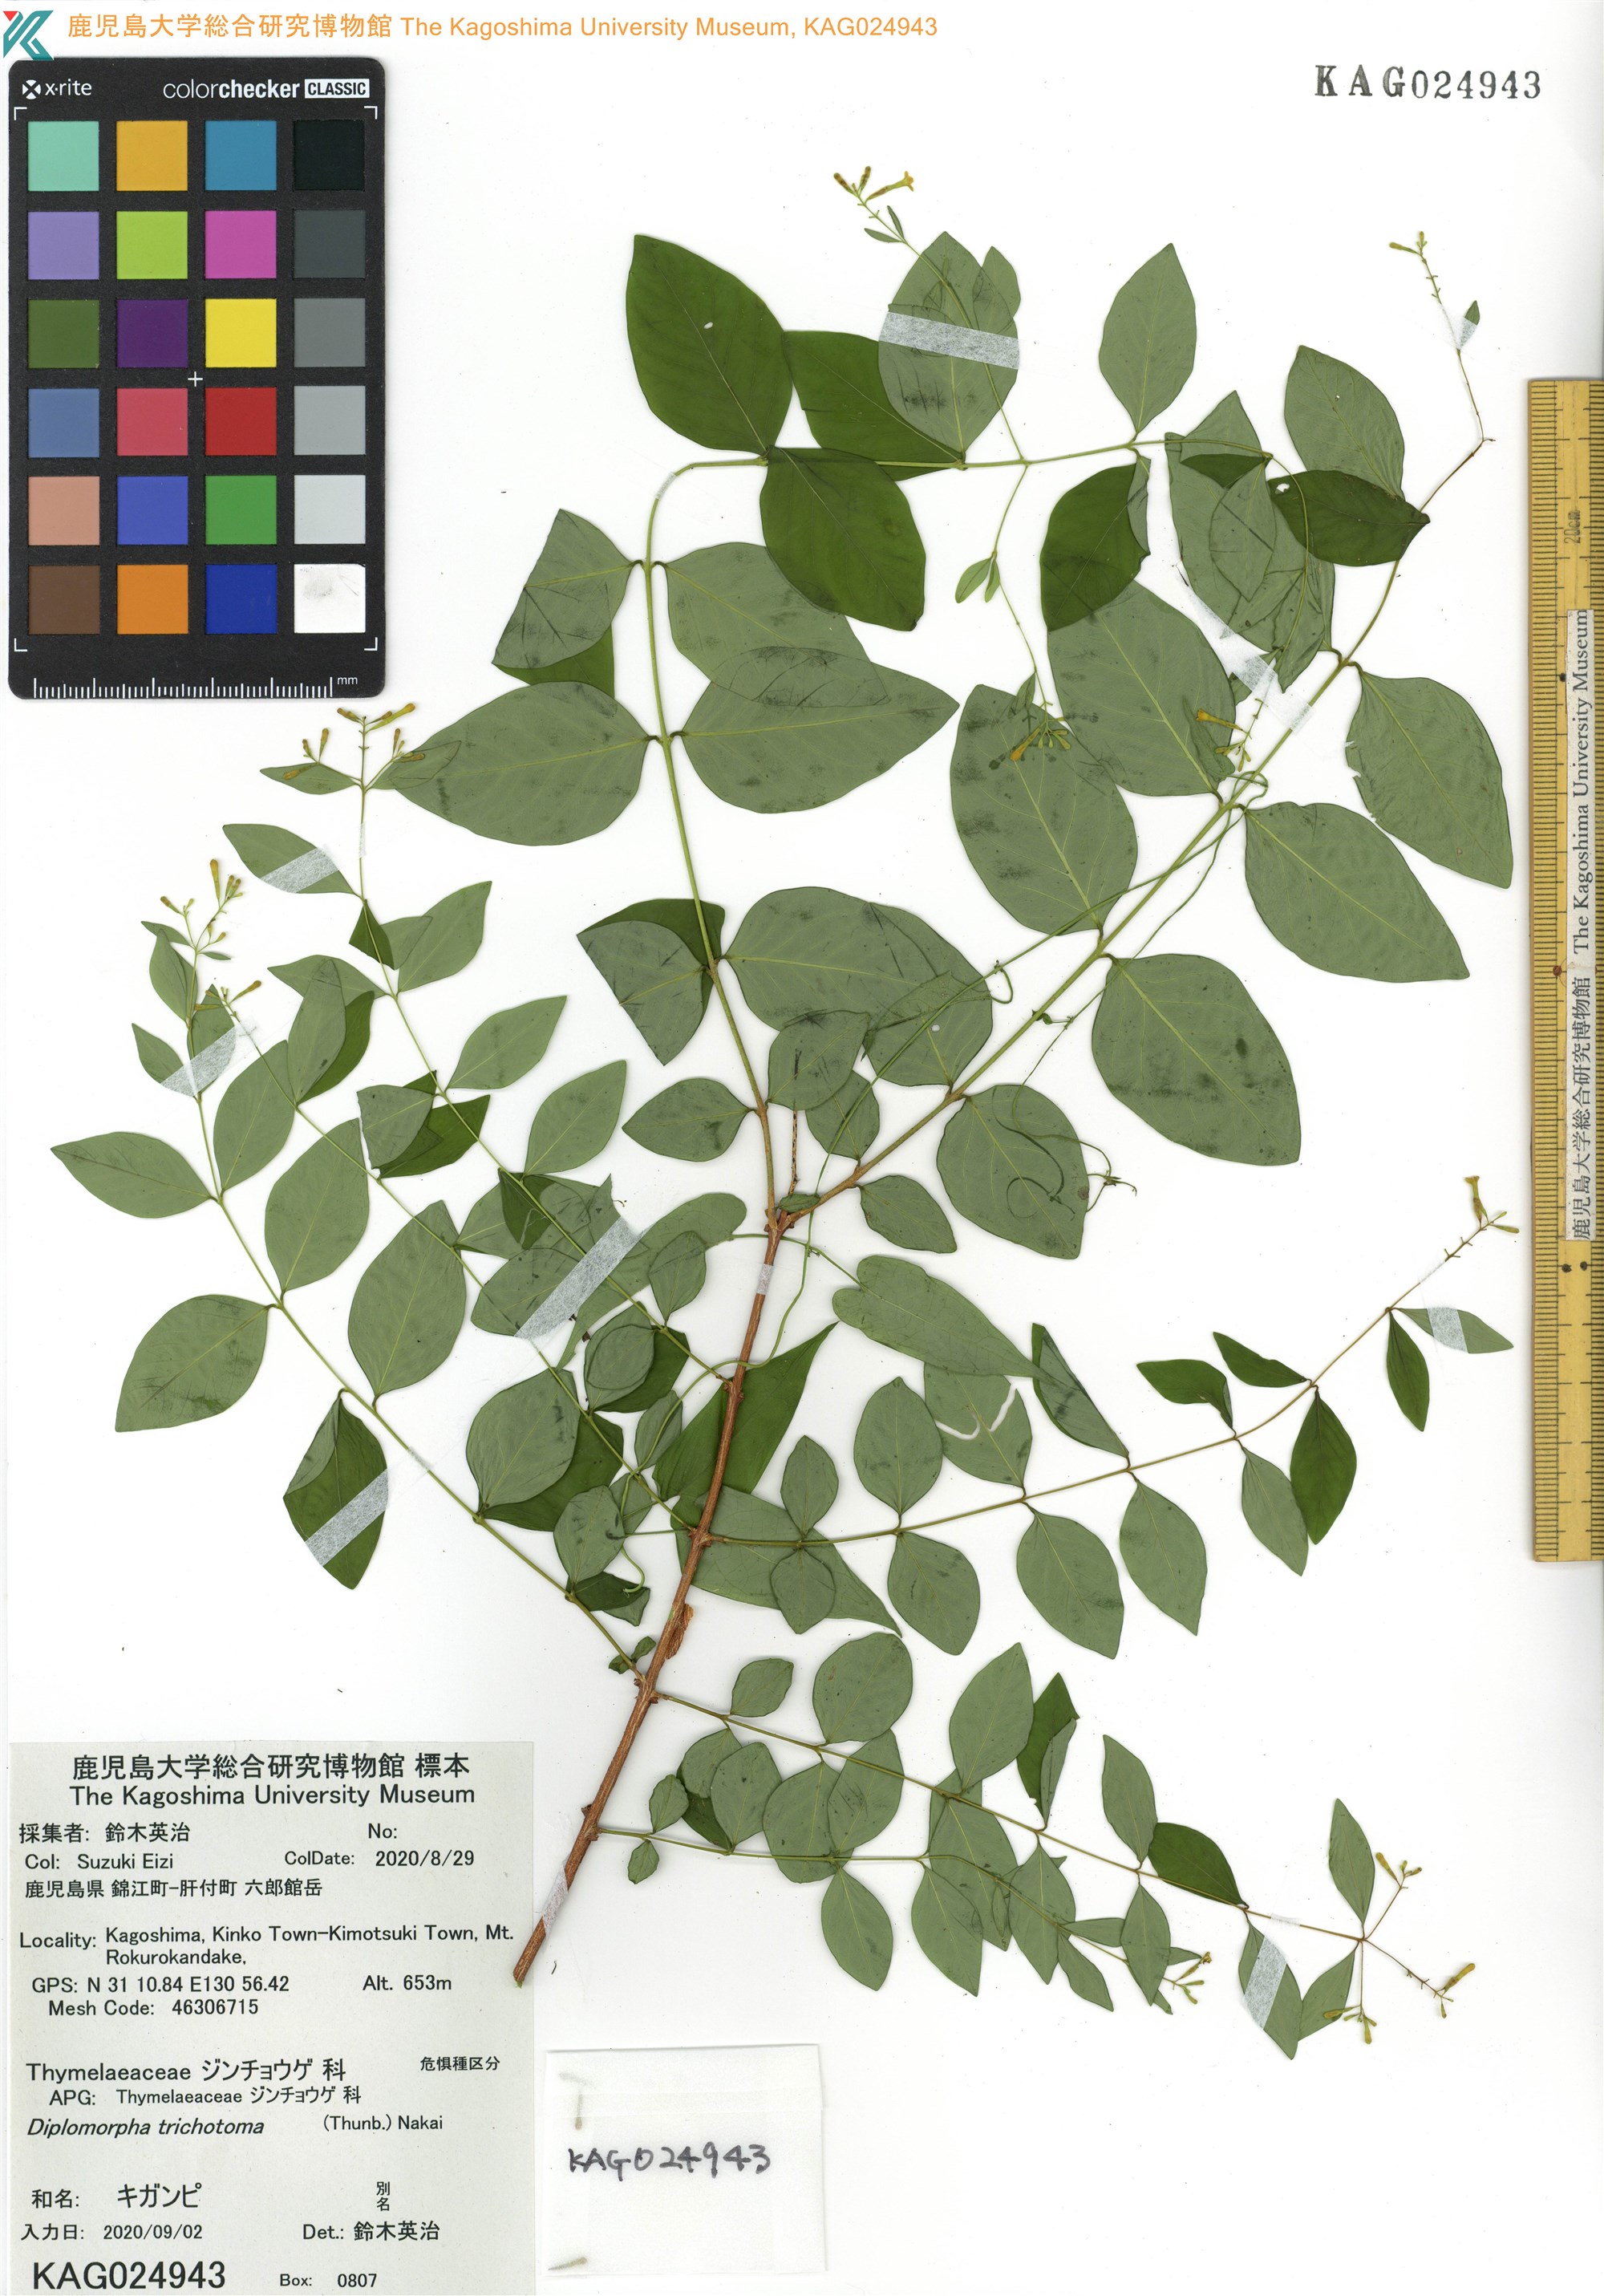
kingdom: Plantae
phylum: Tracheophyta
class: Magnoliopsida
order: Malvales
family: Thymelaeaceae
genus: Wikstroemia
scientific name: Wikstroemia trichotoma
